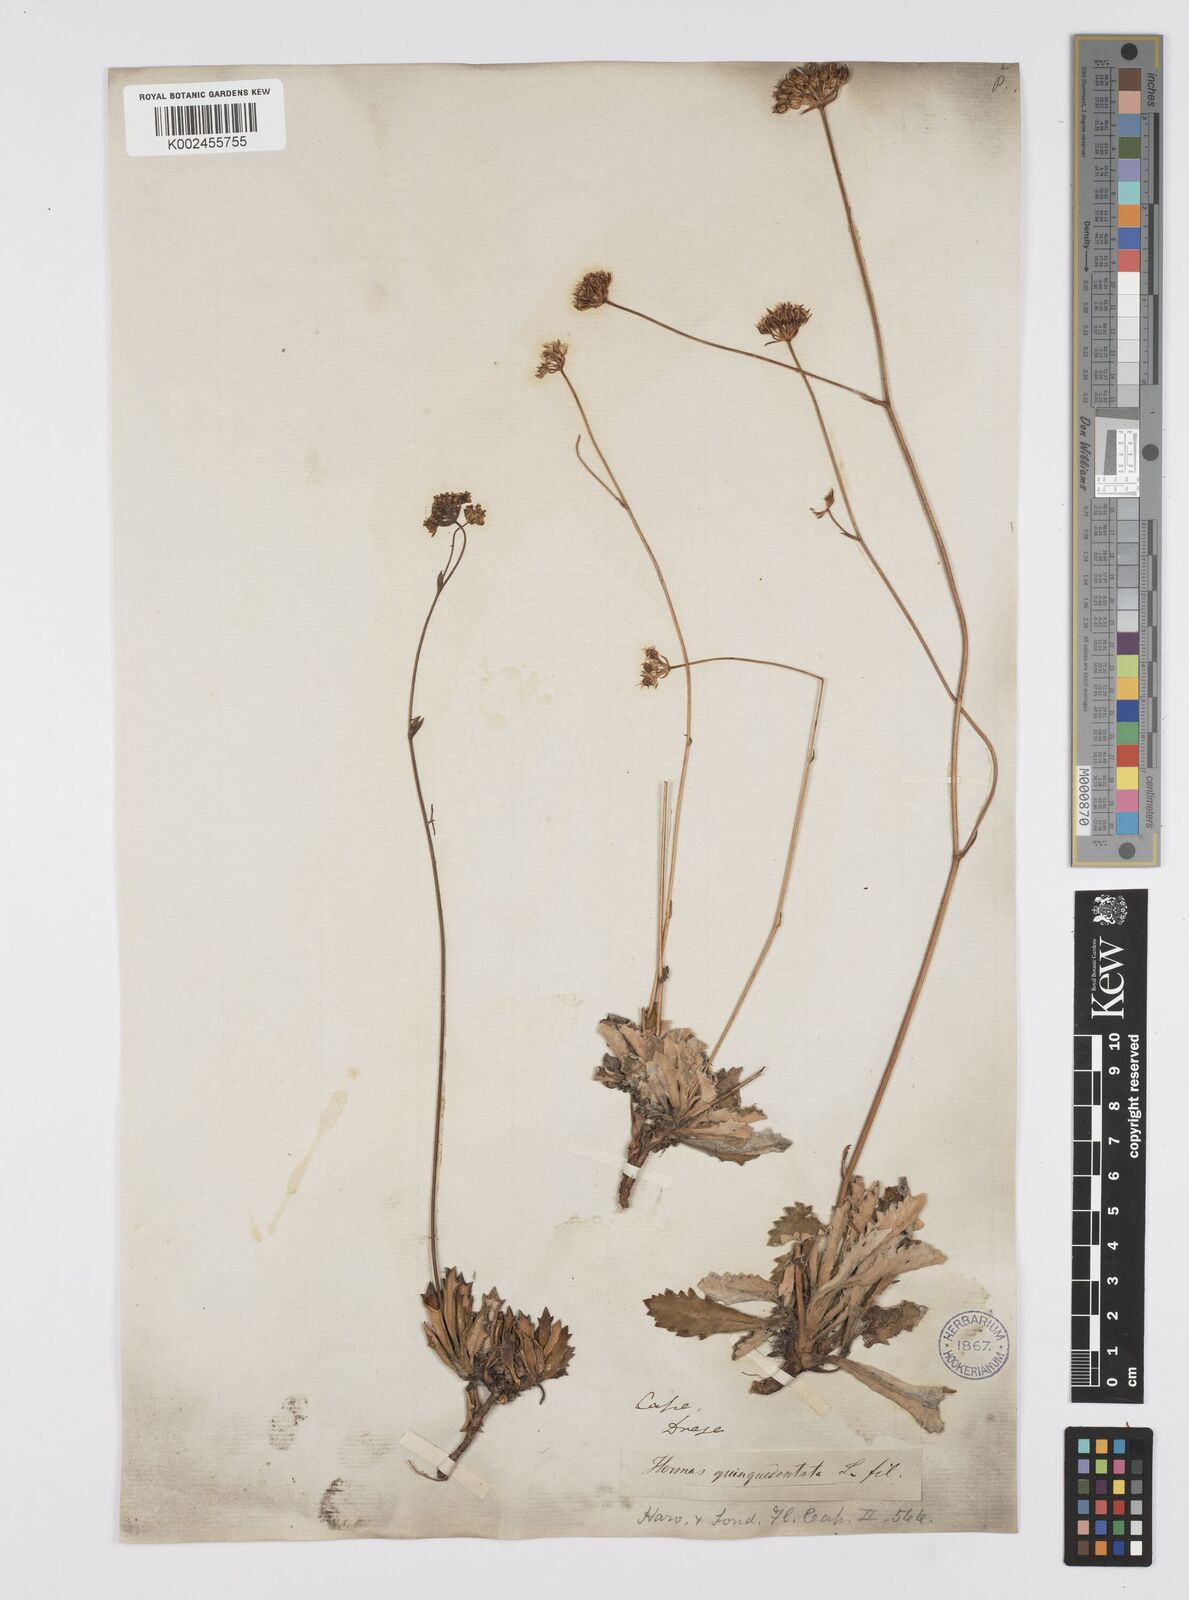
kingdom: Plantae
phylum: Tracheophyta
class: Magnoliopsida
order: Apiales
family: Apiaceae
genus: Hermas
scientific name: Hermas quinquedentata
